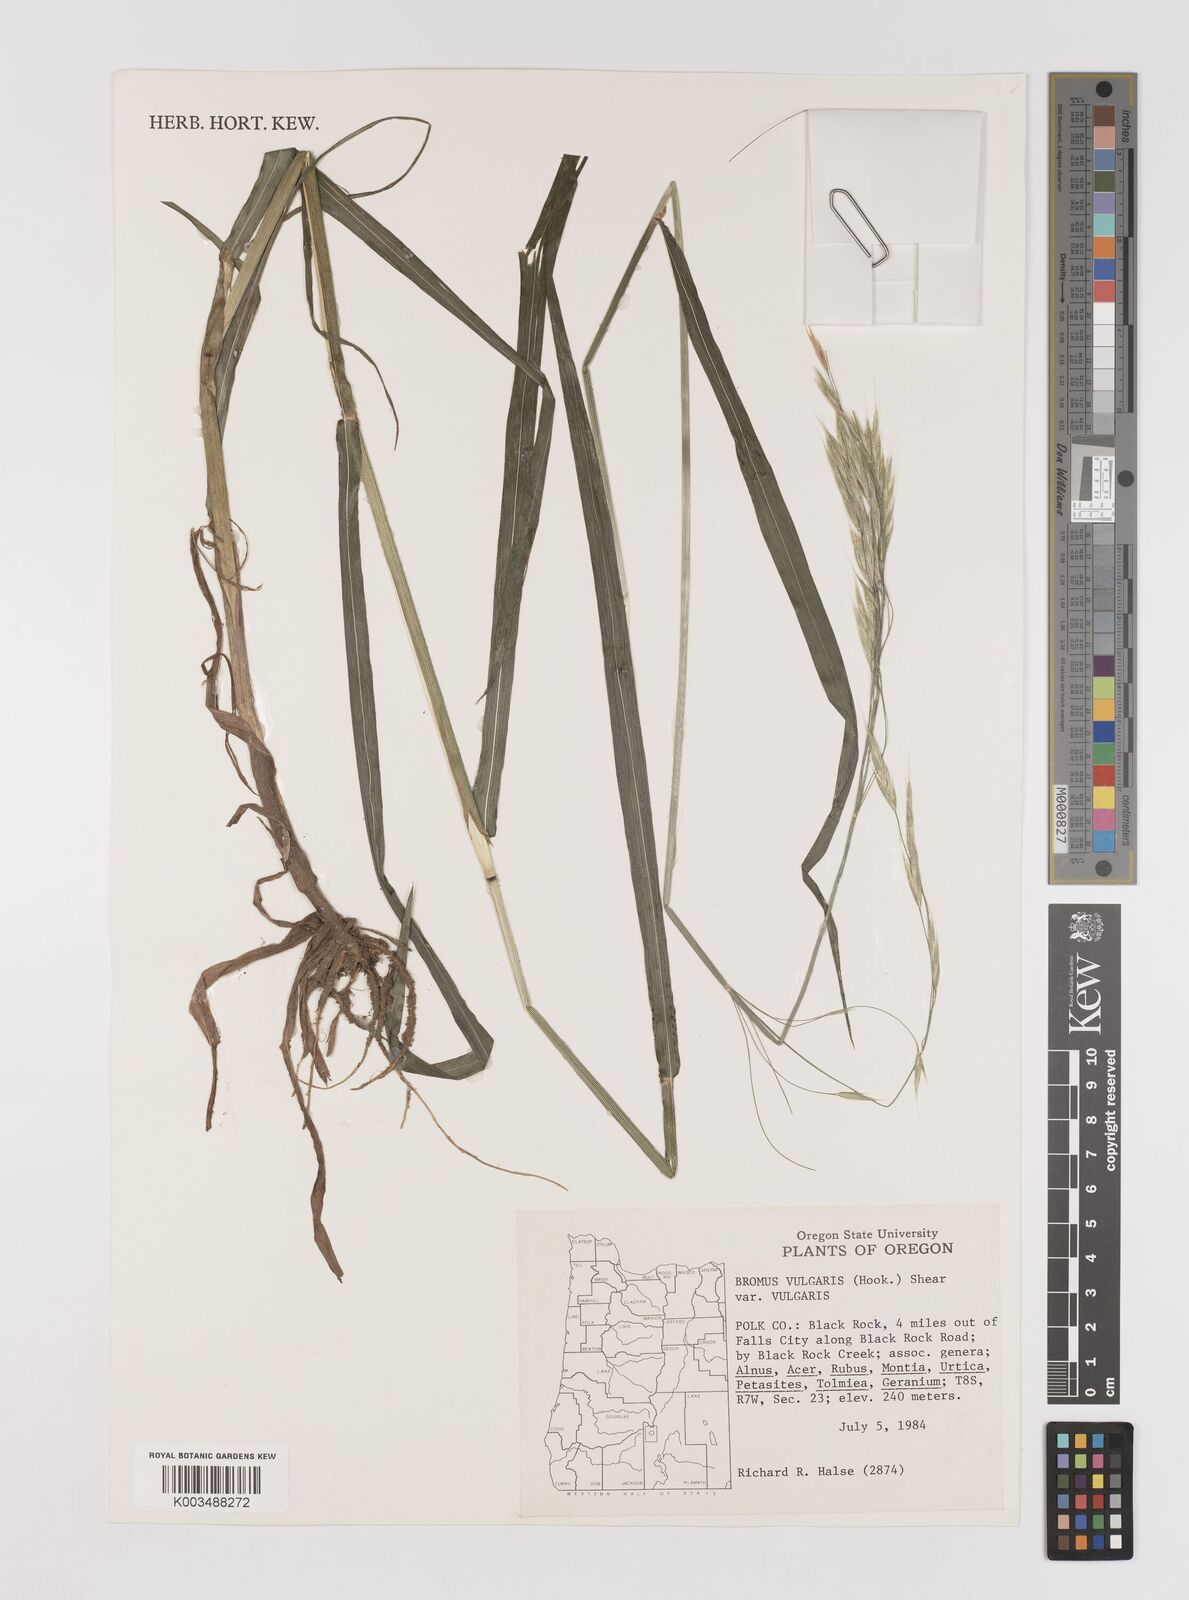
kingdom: Plantae
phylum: Tracheophyta
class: Liliopsida
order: Poales
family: Poaceae
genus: Bromus
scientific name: Bromus vulgaris
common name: Columbia brome
